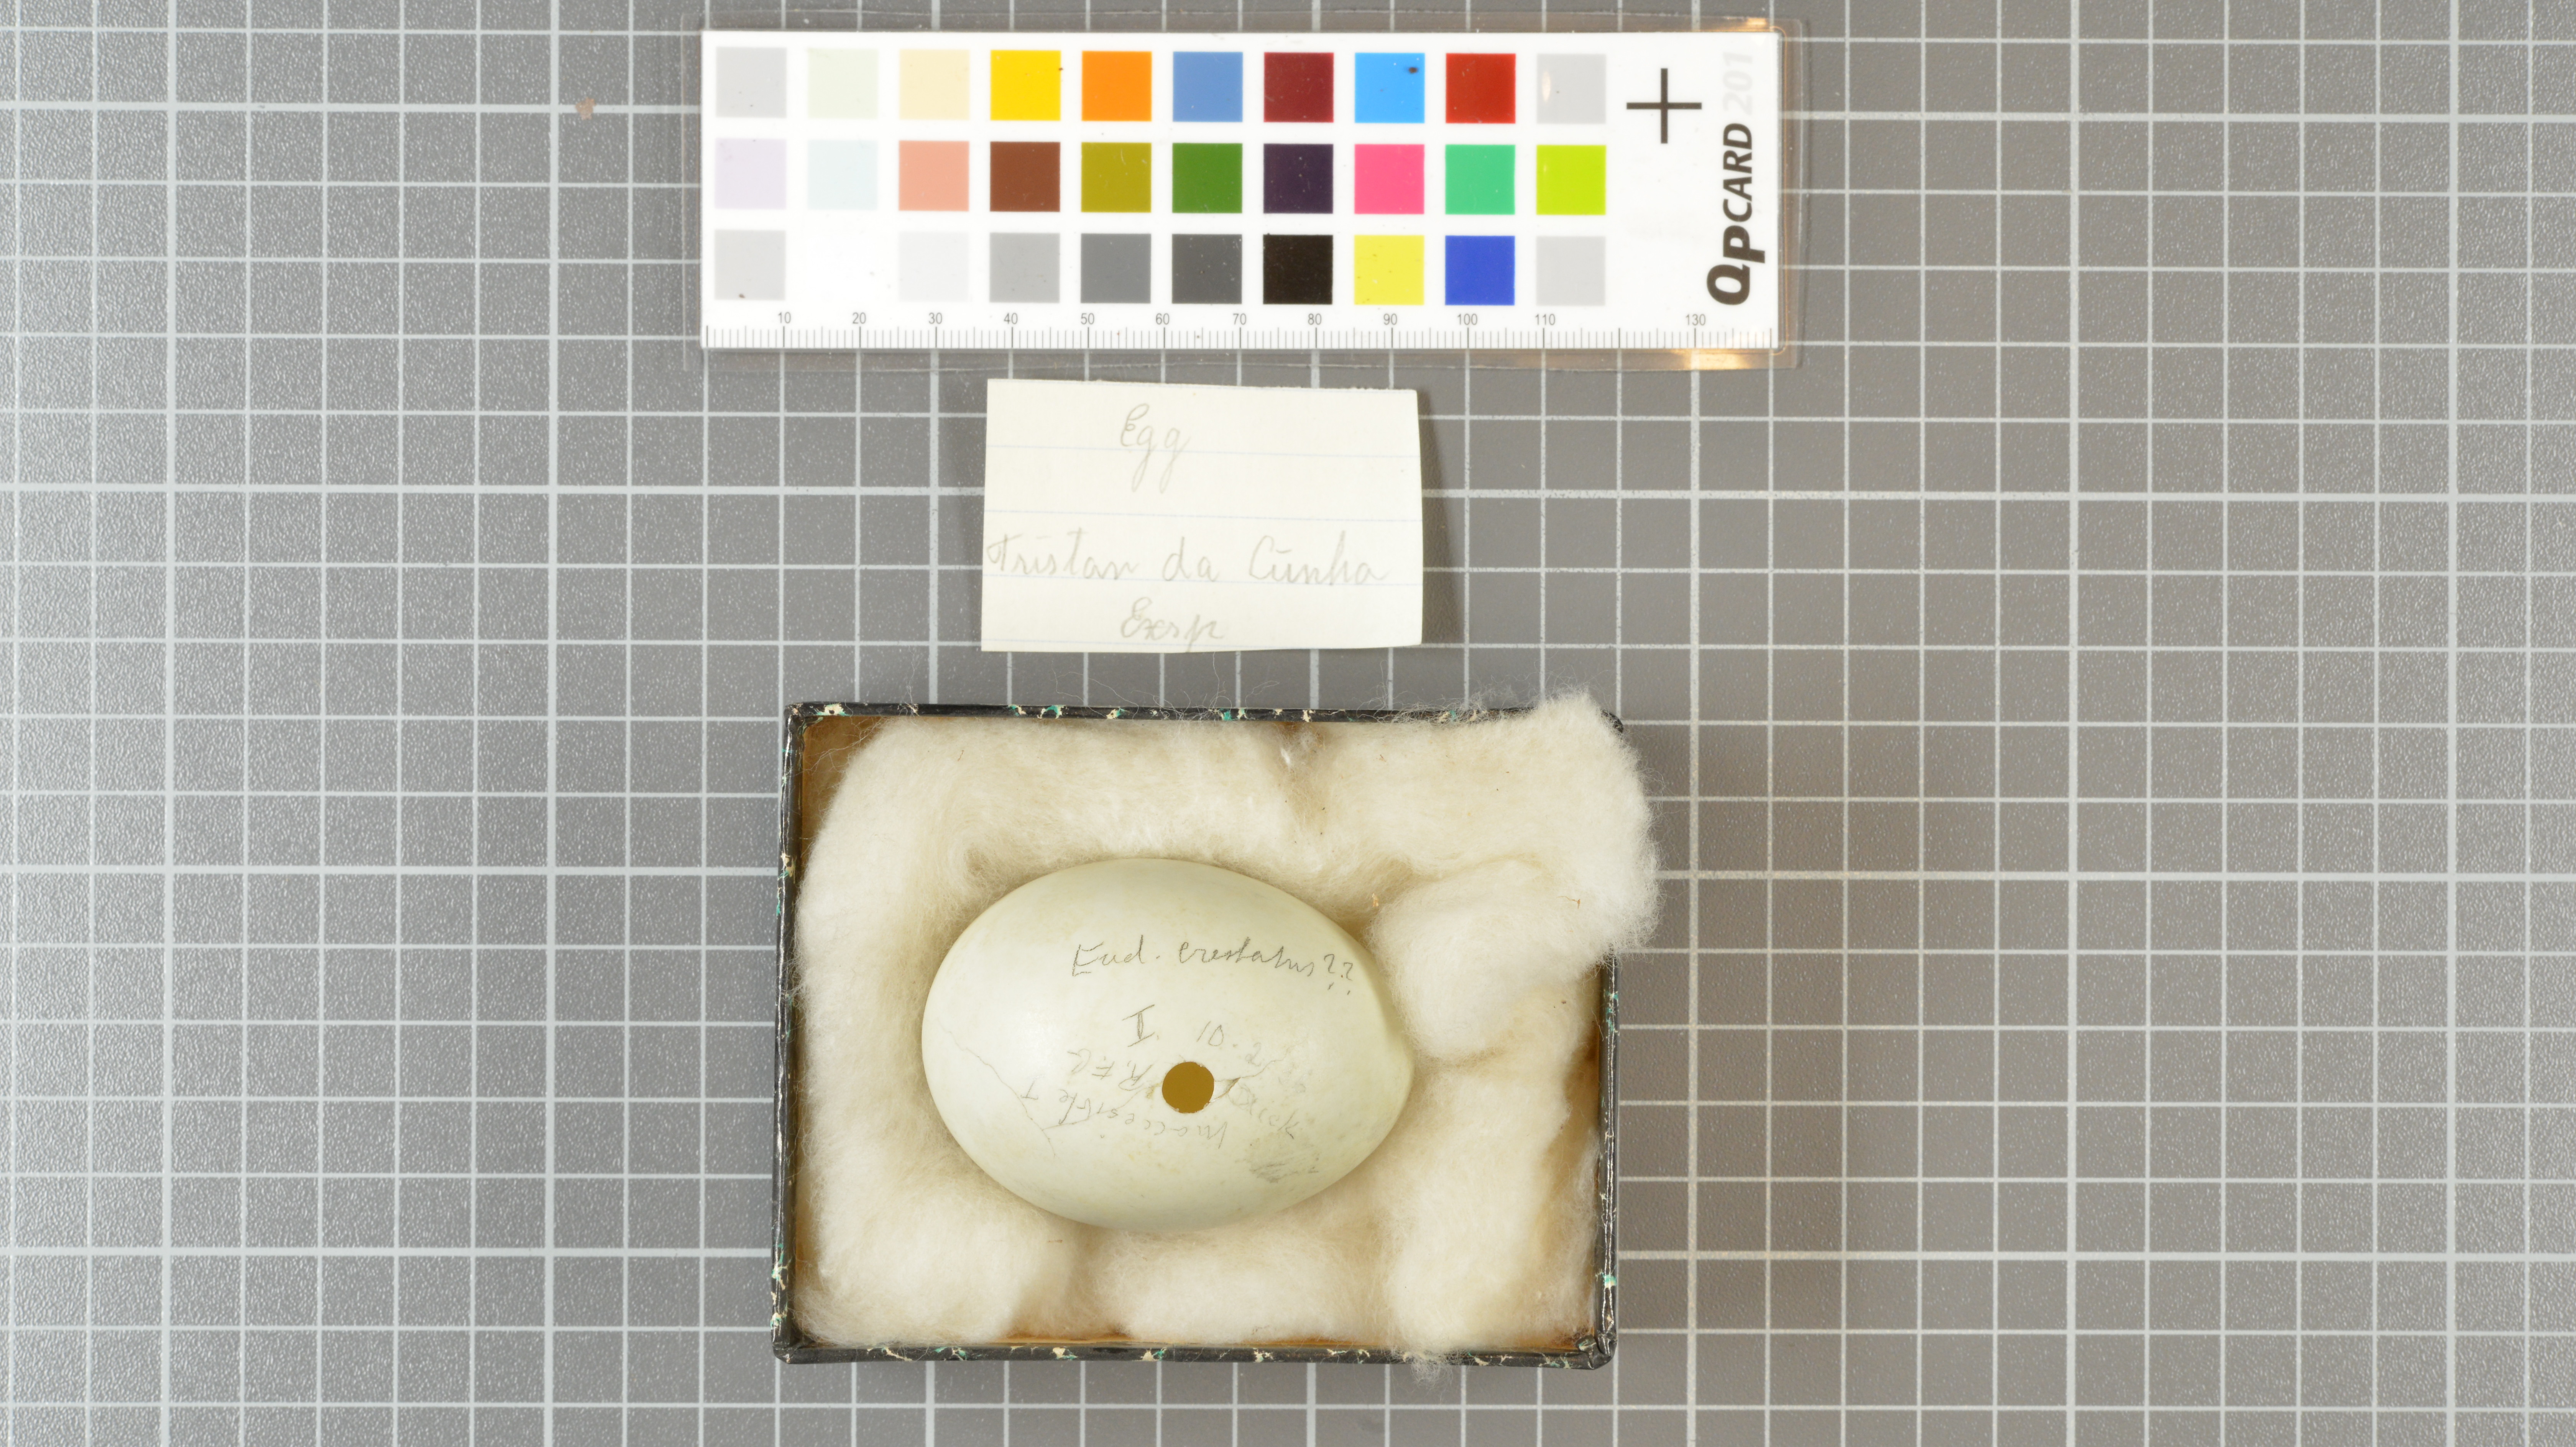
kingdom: Animalia
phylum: Chordata
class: Aves
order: Sphenisciformes
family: Spheniscidae
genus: Eudyptes
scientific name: Eudyptes moseleyi
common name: Northern rockhopper penguin
